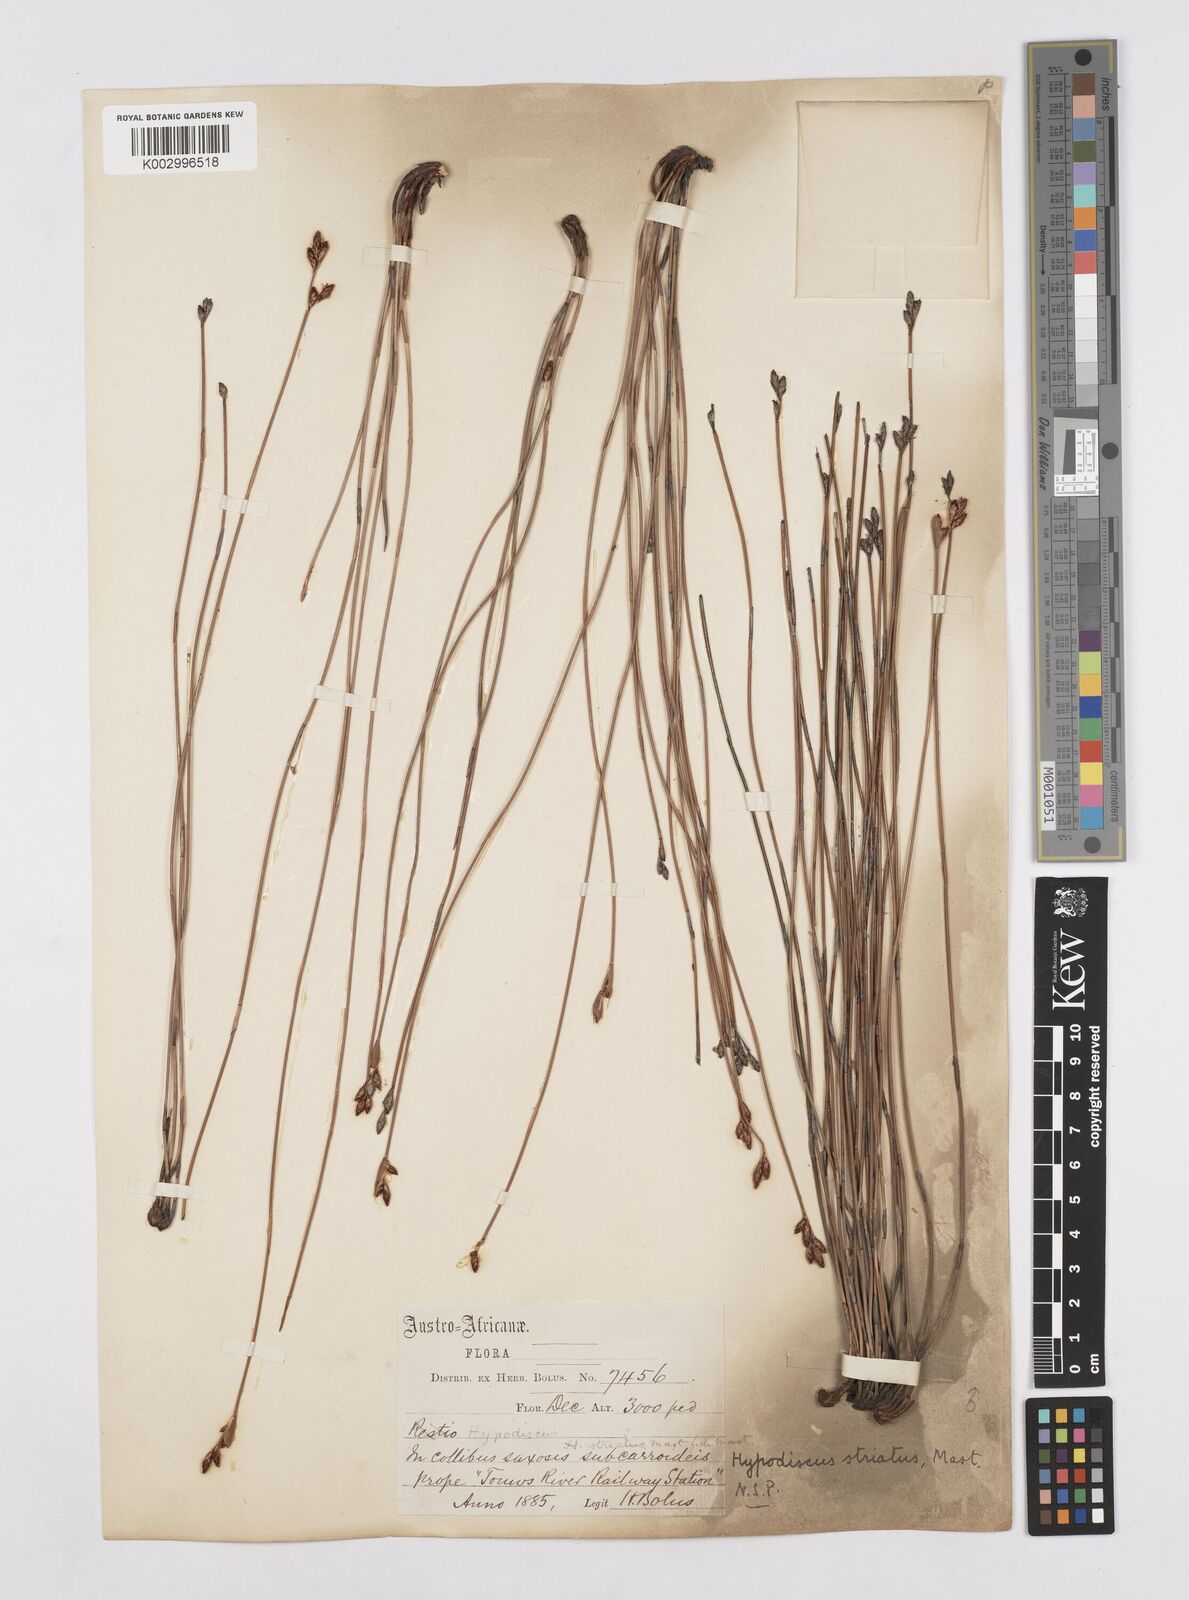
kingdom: Plantae
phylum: Tracheophyta
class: Liliopsida
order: Poales
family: Restionaceae
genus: Hypodiscus
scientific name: Hypodiscus striatus
